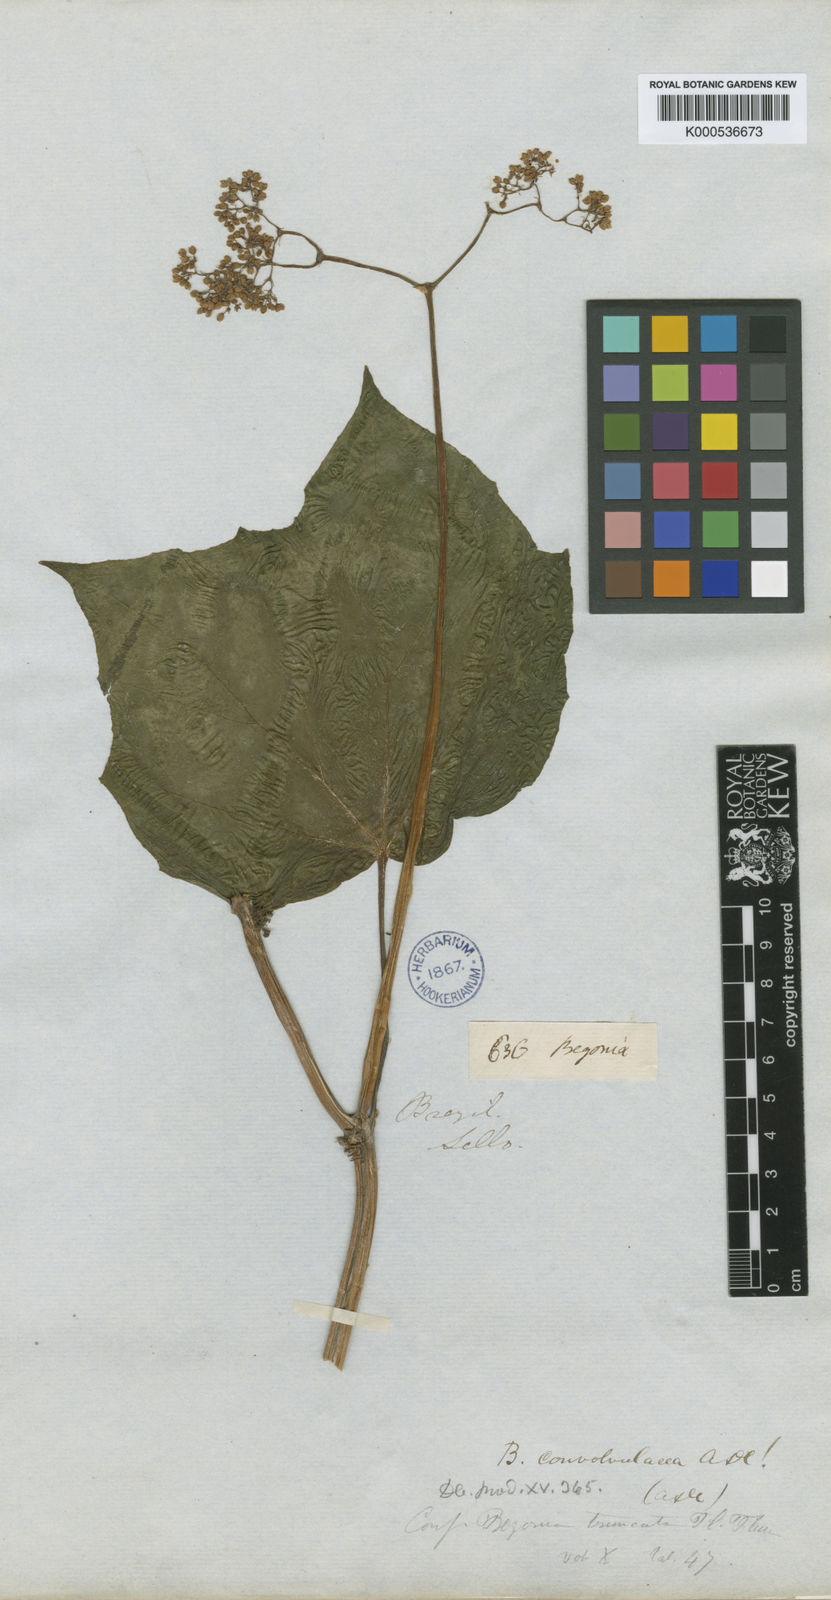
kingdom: Plantae
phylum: Tracheophyta
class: Magnoliopsida
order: Cucurbitales
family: Begoniaceae
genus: Begonia
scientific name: Begonia convolvulacea
